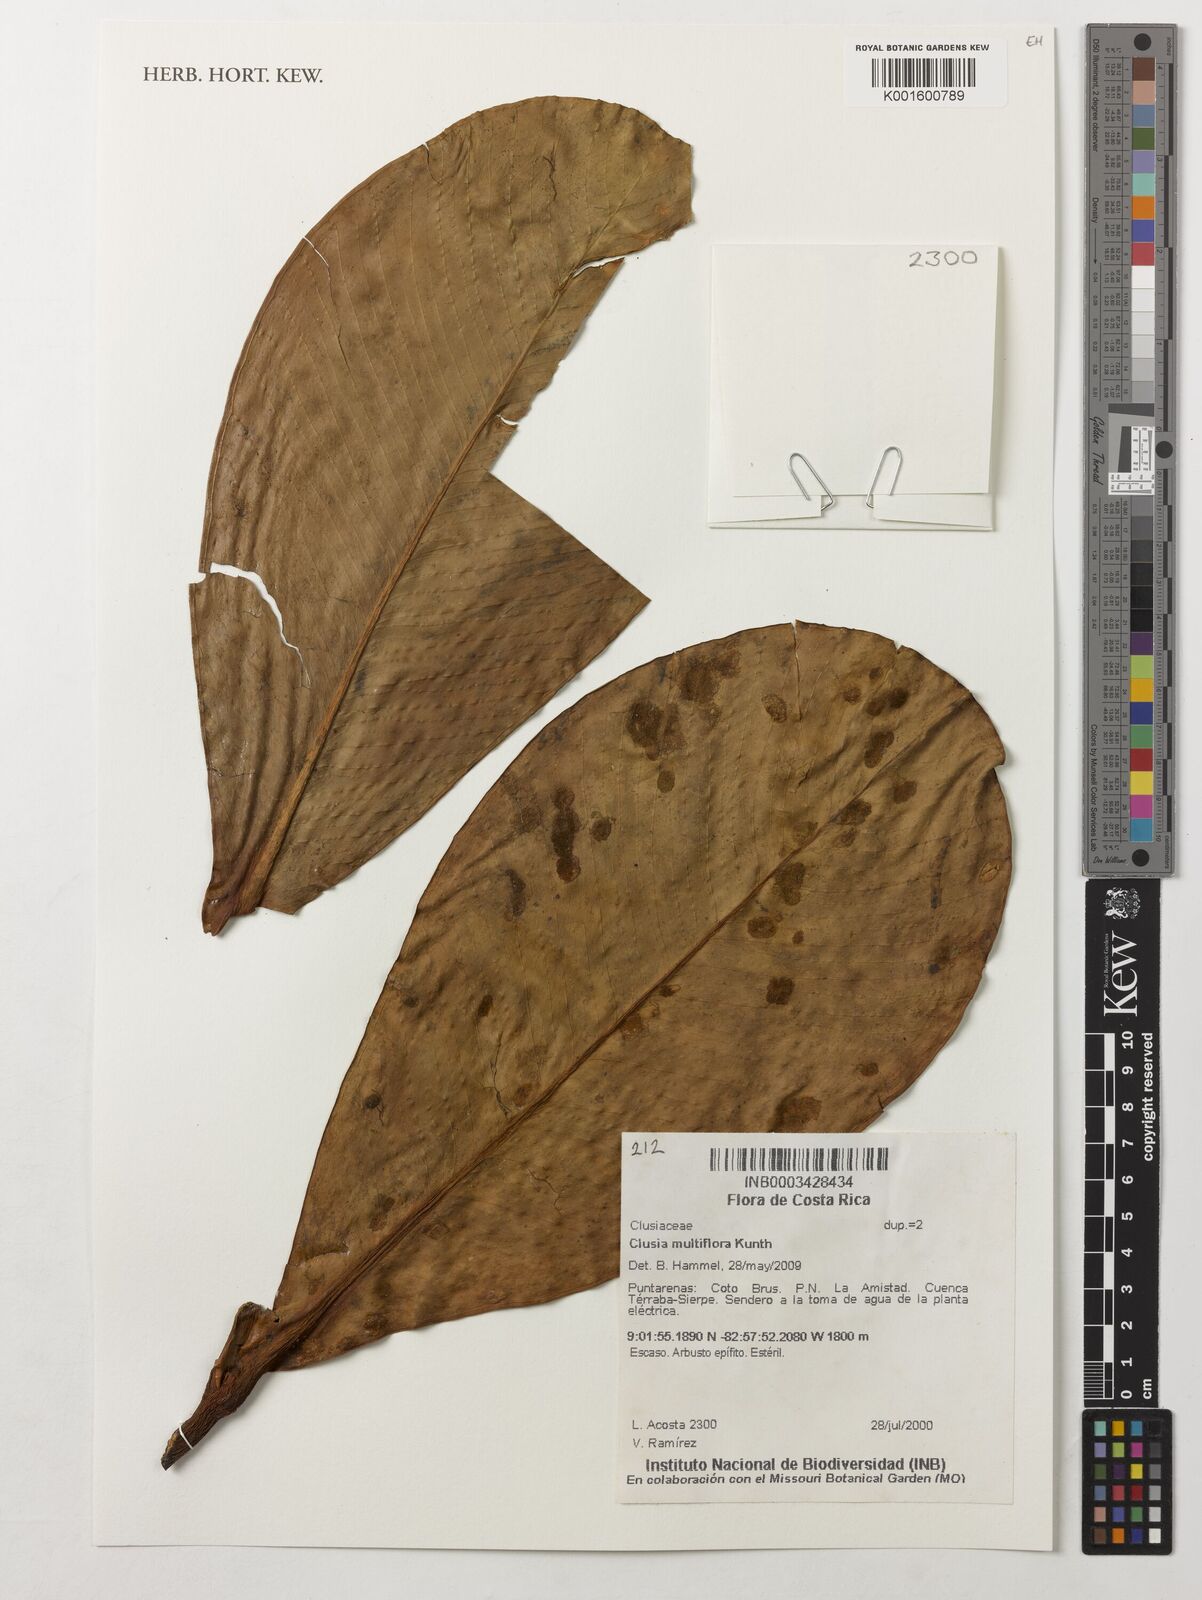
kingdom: Plantae
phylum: Tracheophyta
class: Magnoliopsida
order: Malpighiales
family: Clusiaceae
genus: Clusia
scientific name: Clusia
